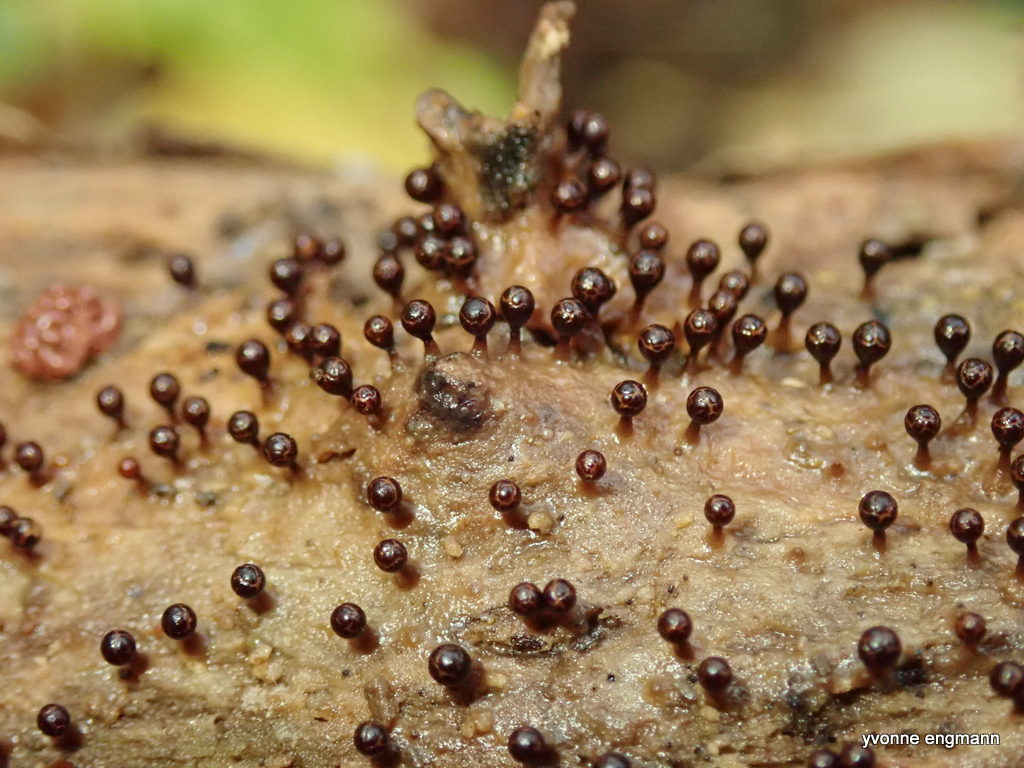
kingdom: Protozoa
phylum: Mycetozoa
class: Myxomycetes
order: Trichiales
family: Trichiaceae
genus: Trichia
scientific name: Trichia
